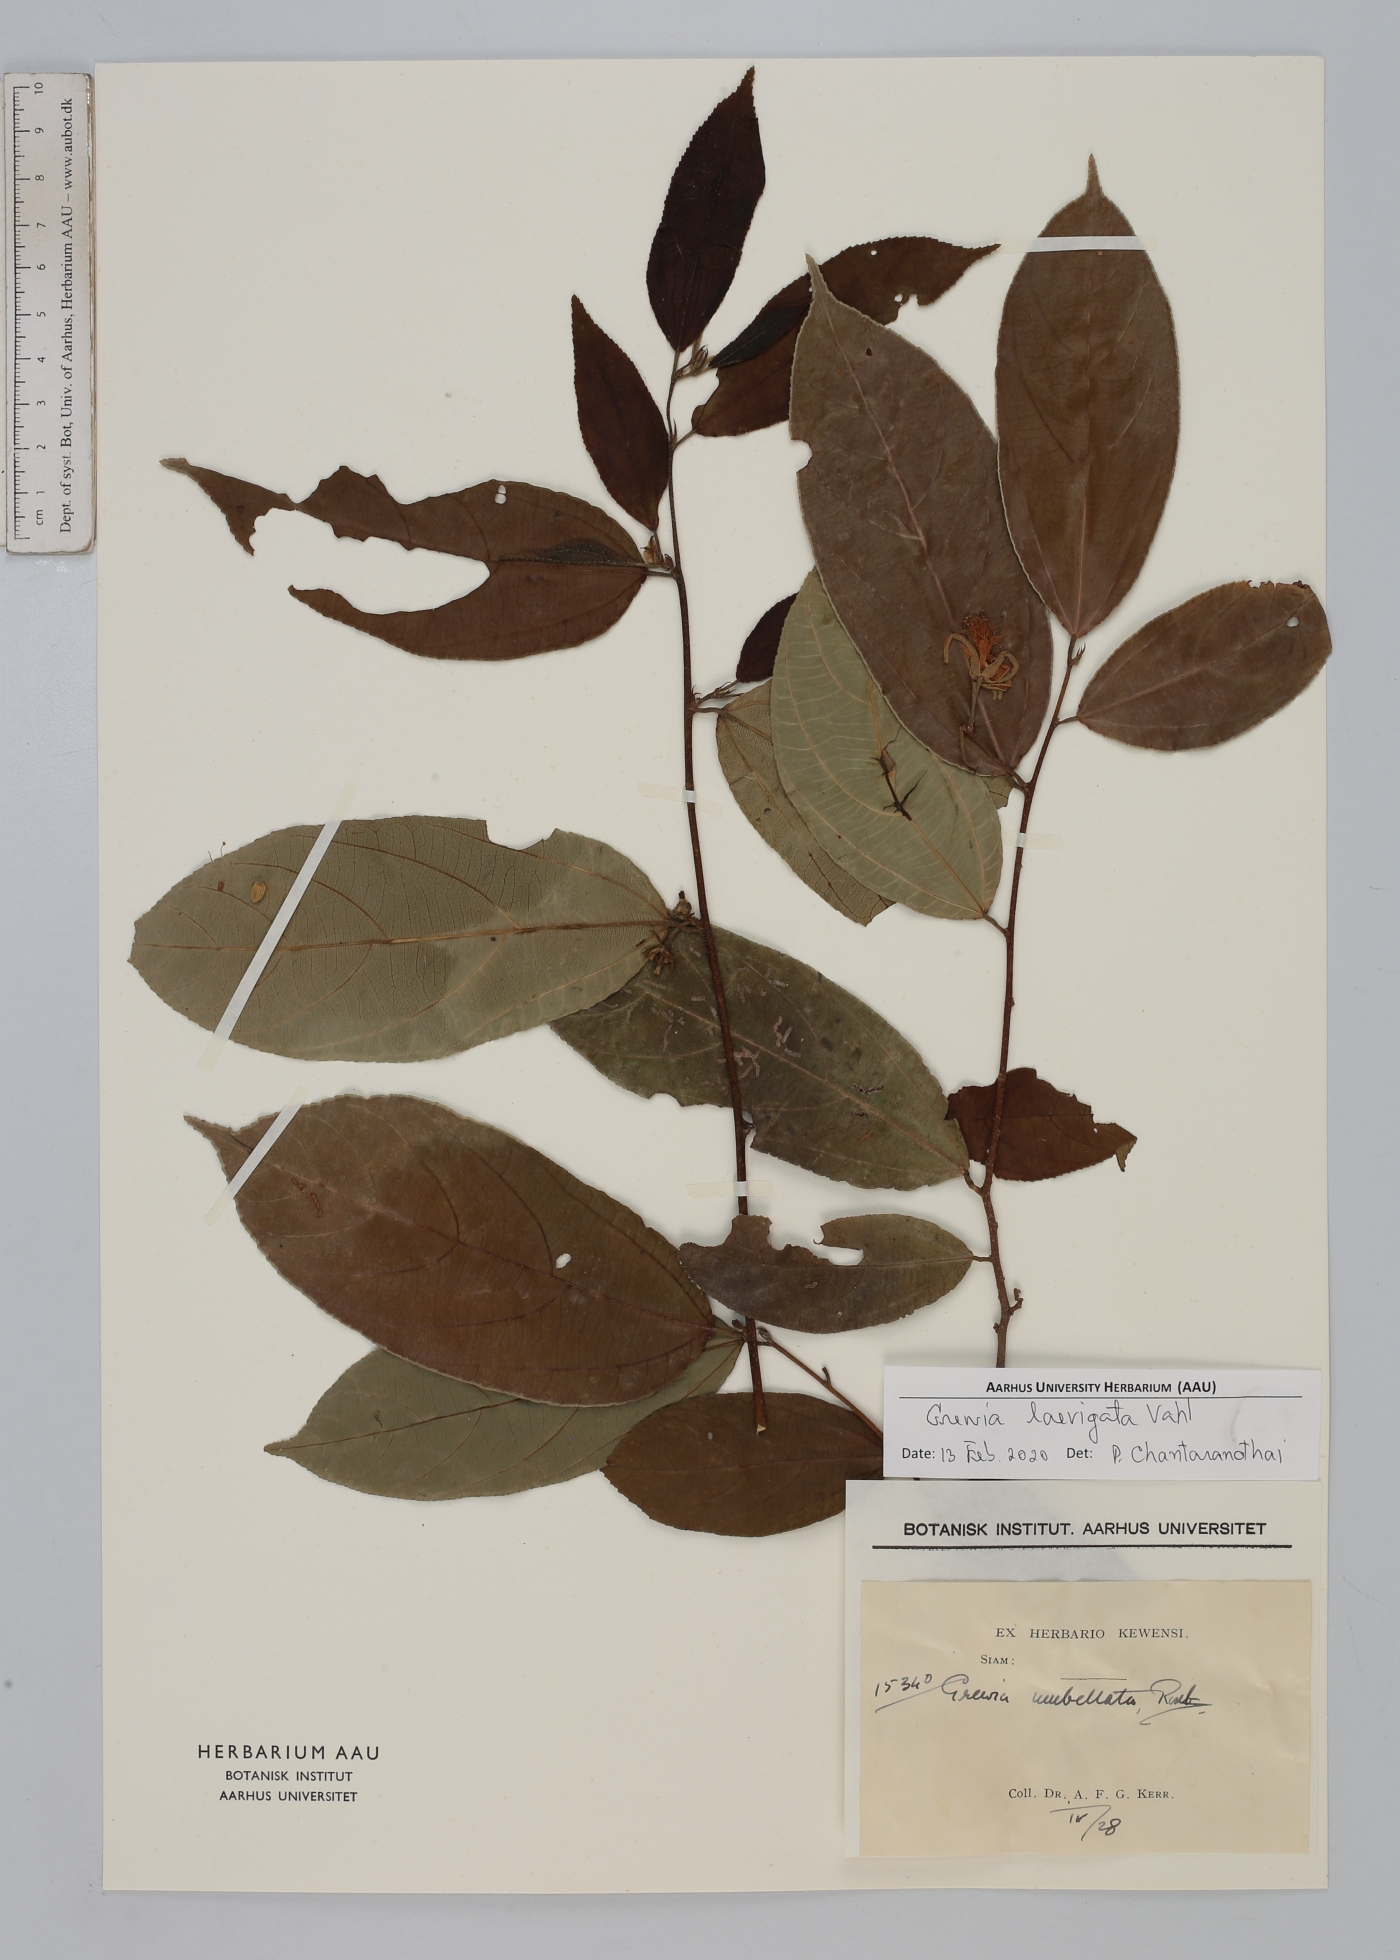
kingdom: Plantae
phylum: Tracheophyta
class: Magnoliopsida
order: Malvales
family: Malvaceae
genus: Grewia
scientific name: Grewia laevigata
